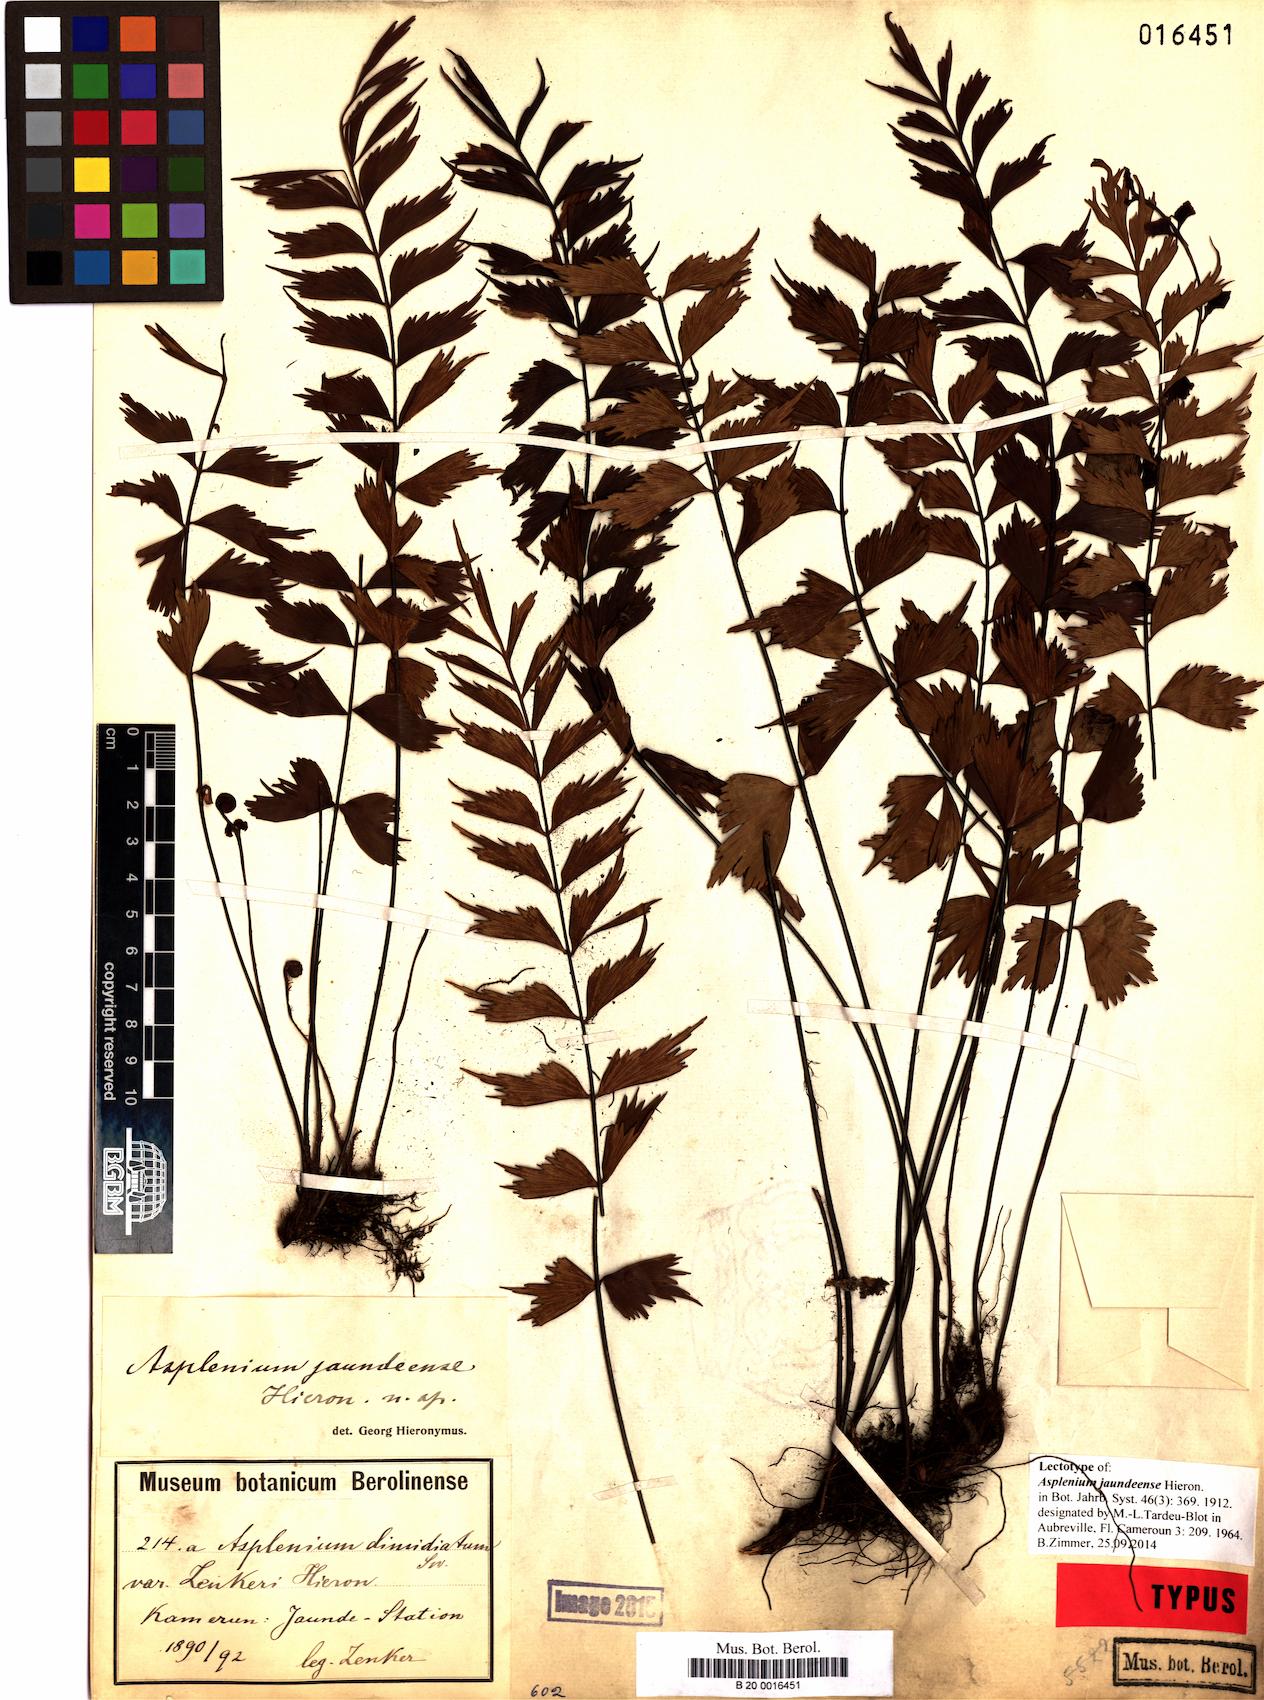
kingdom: Plantae
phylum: Tracheophyta
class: Polypodiopsida
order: Polypodiales
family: Aspleniaceae
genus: Asplenium
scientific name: Asplenium jaundeense
